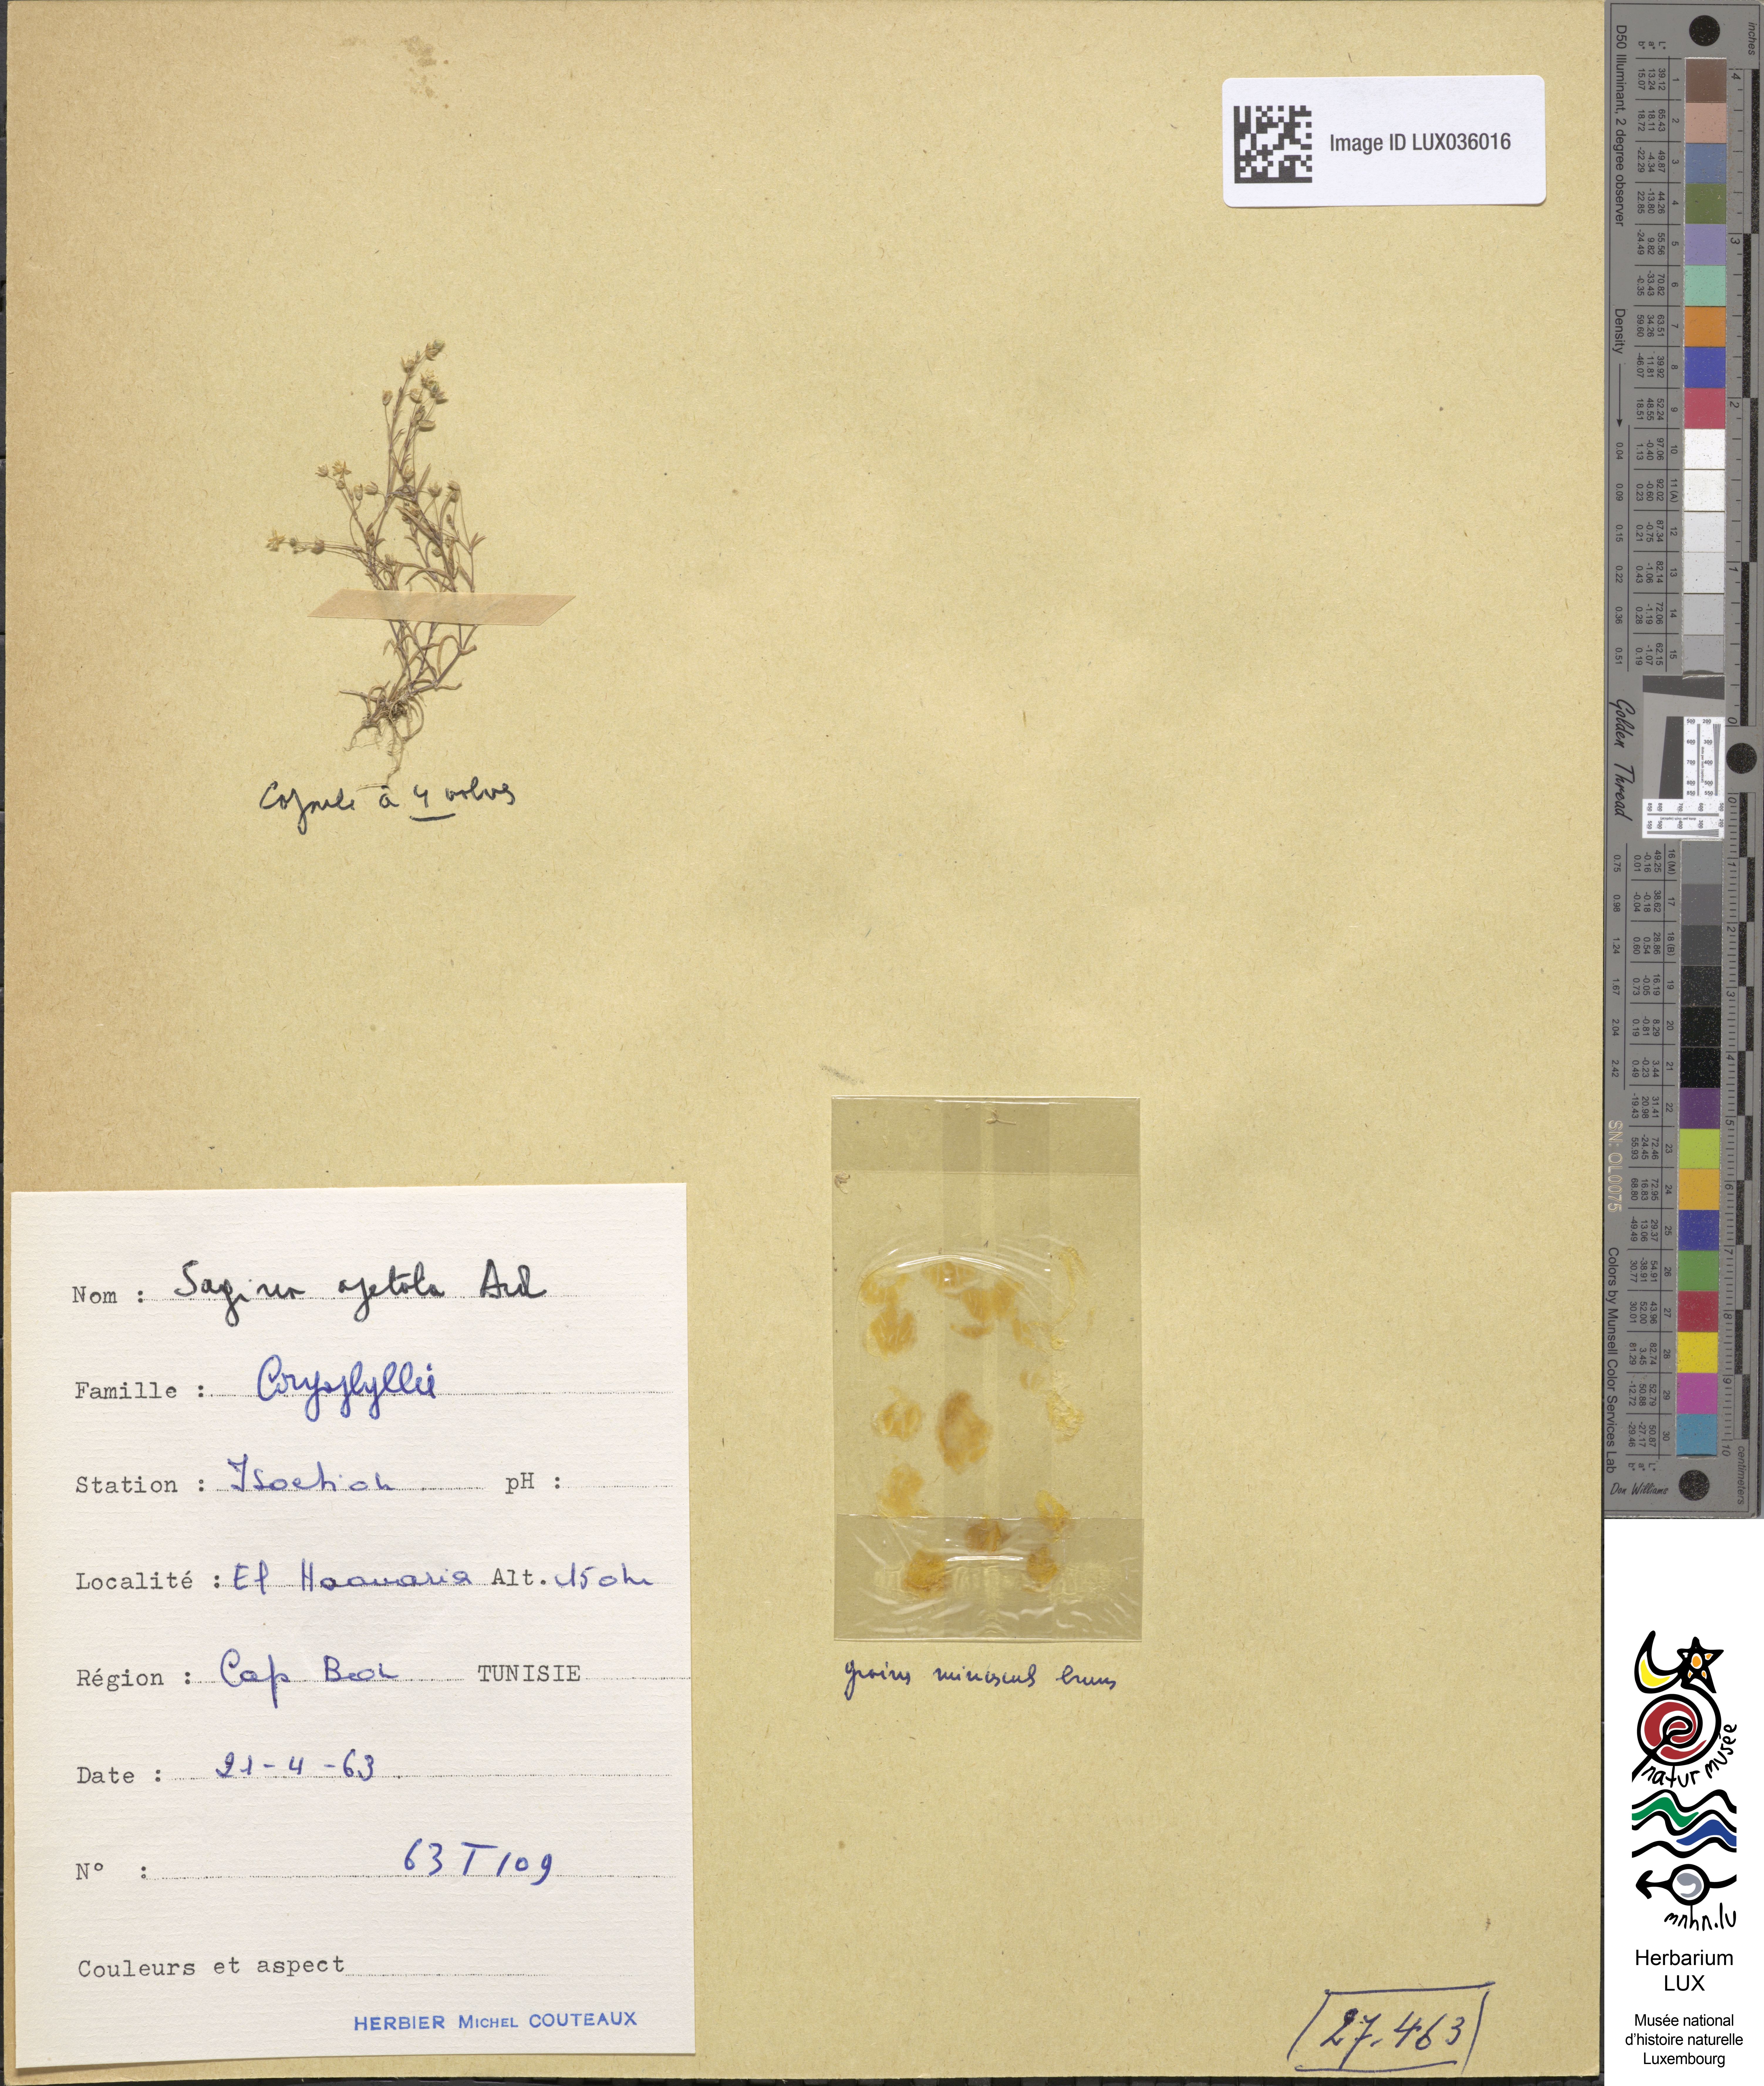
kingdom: Plantae
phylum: Tracheophyta
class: Magnoliopsida
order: Caryophyllales
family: Caryophyllaceae
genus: Sagina
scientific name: Sagina apetala
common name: Annual pearlwort
